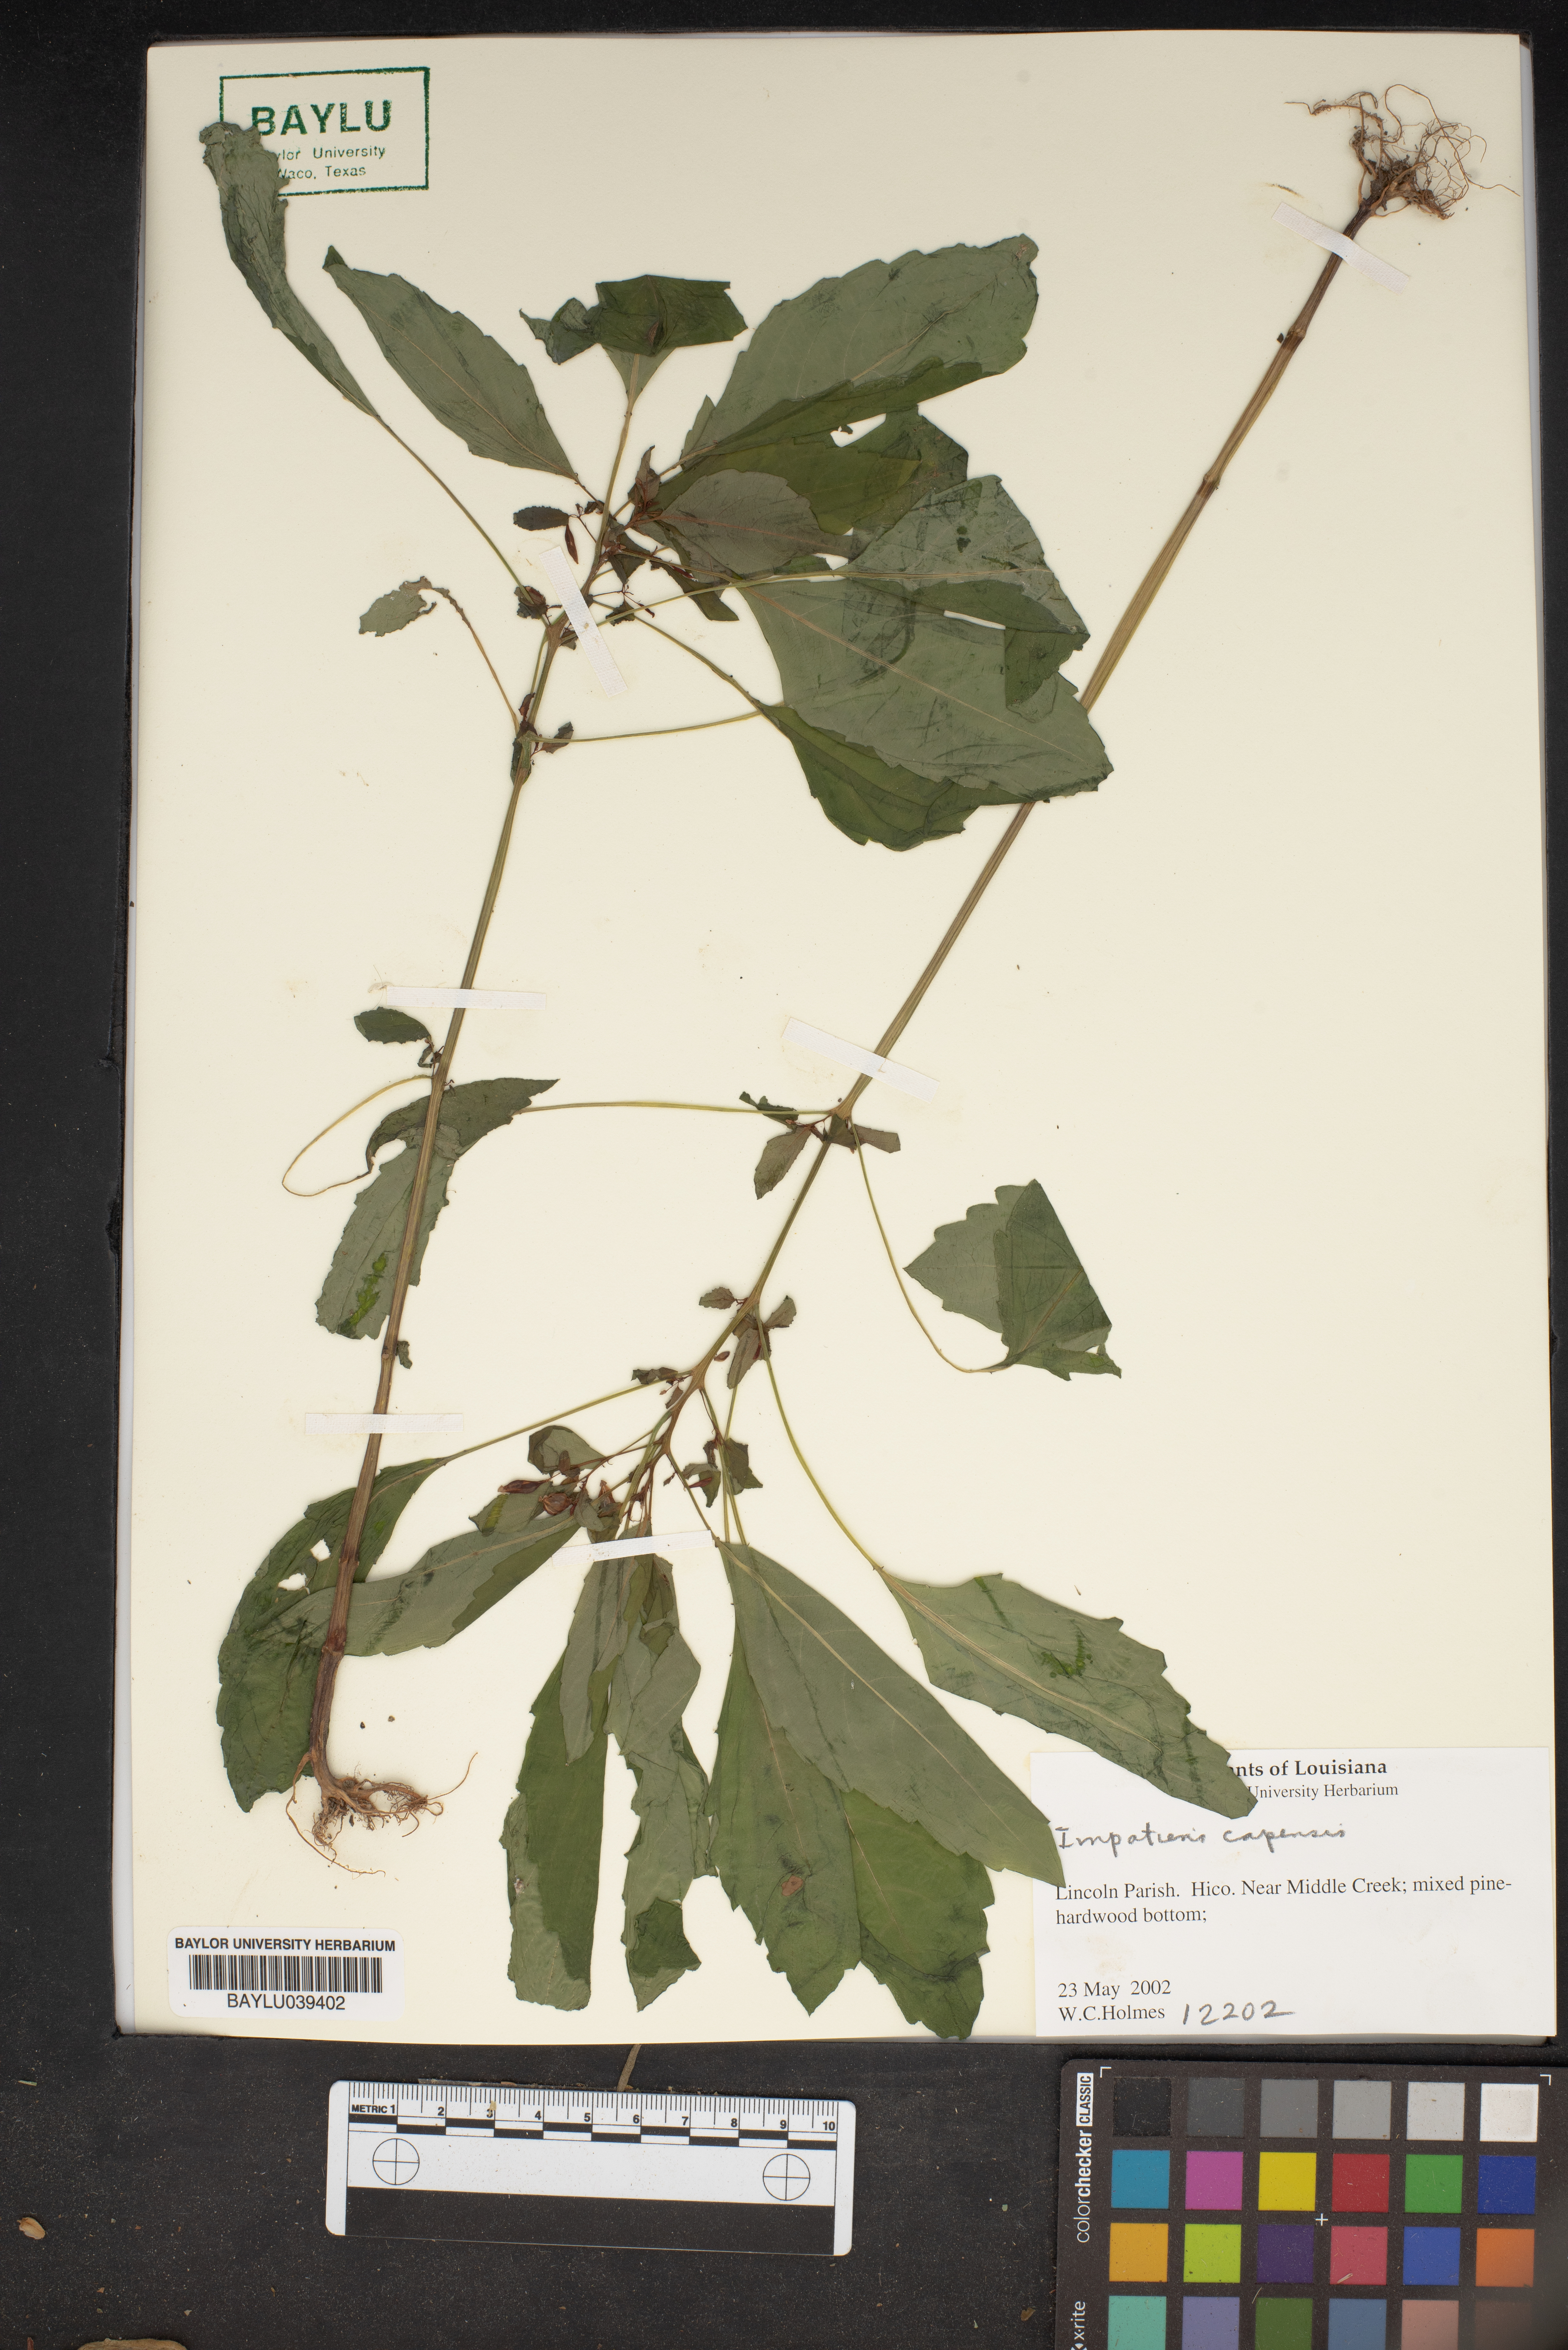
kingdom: Plantae
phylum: Tracheophyta
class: Magnoliopsida
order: Ericales
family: Balsaminaceae
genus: Impatiens
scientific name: Impatiens capensis
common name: Orange balsam
